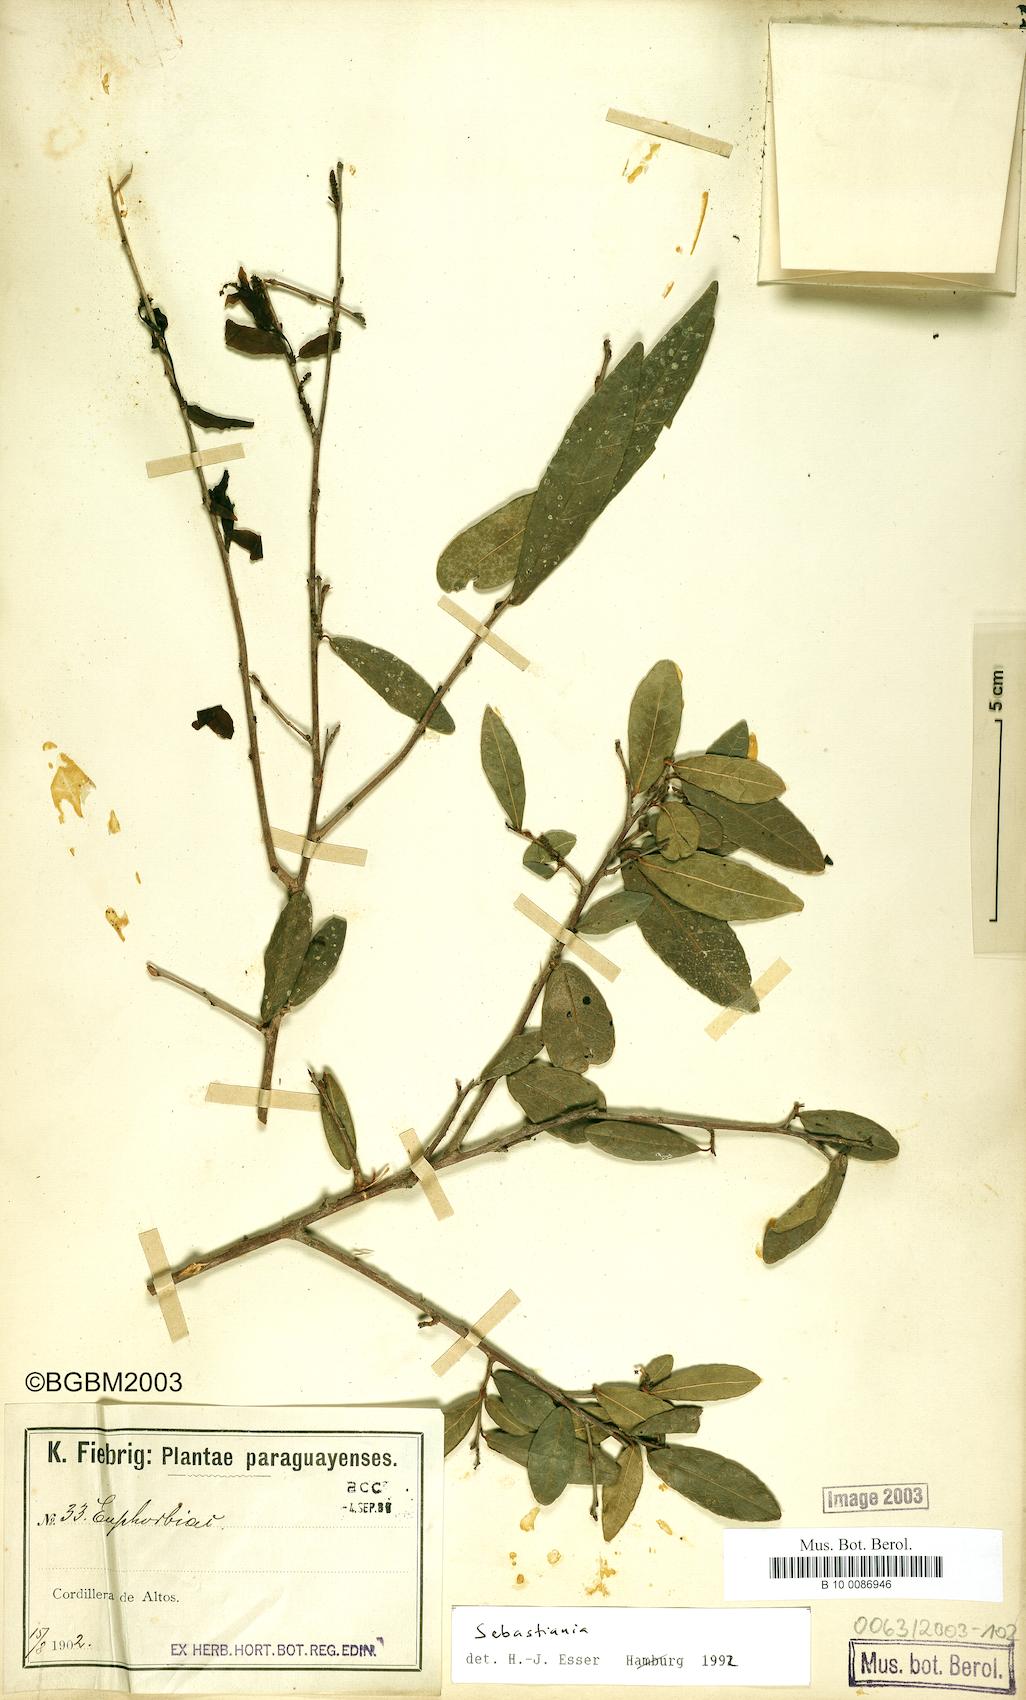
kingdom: Plantae
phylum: Tracheophyta
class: Magnoliopsida
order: Malpighiales
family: Euphorbiaceae
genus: Sebastiania
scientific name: Sebastiania serrata
